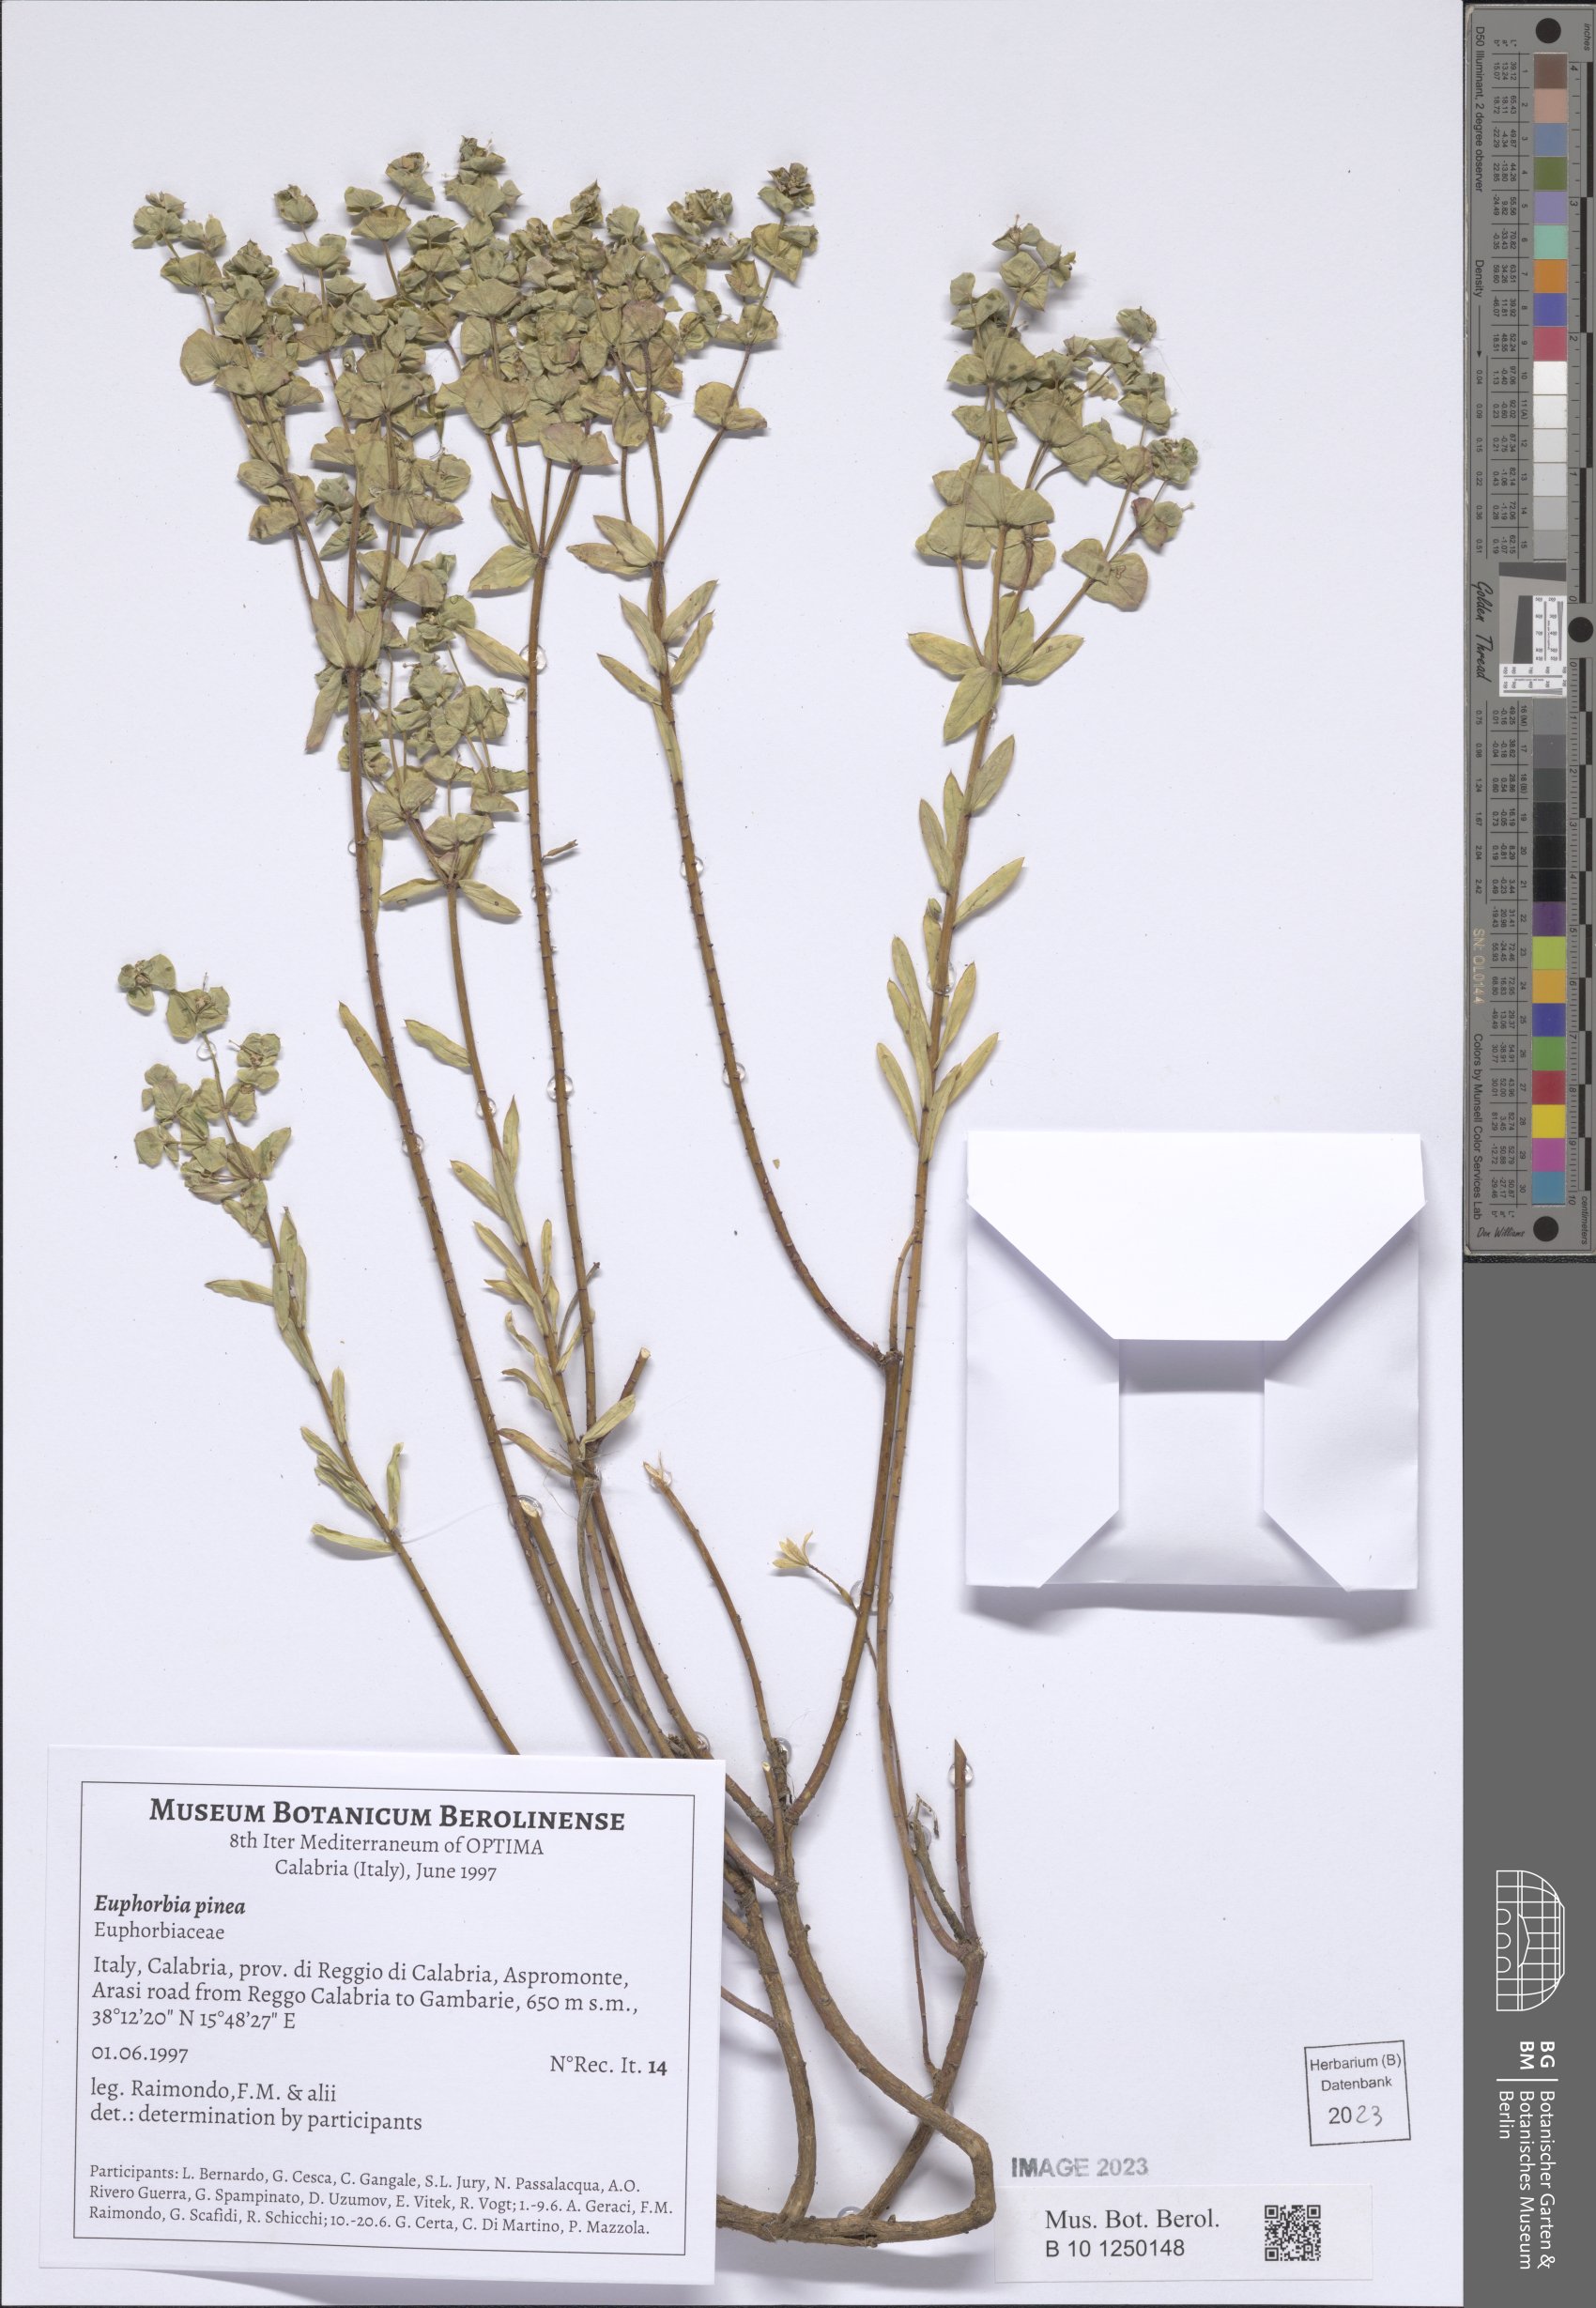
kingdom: Plantae
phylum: Tracheophyta
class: Magnoliopsida
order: Malpighiales
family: Euphorbiaceae
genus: Euphorbia
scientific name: Euphorbia segetalis
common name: Corn spurge
